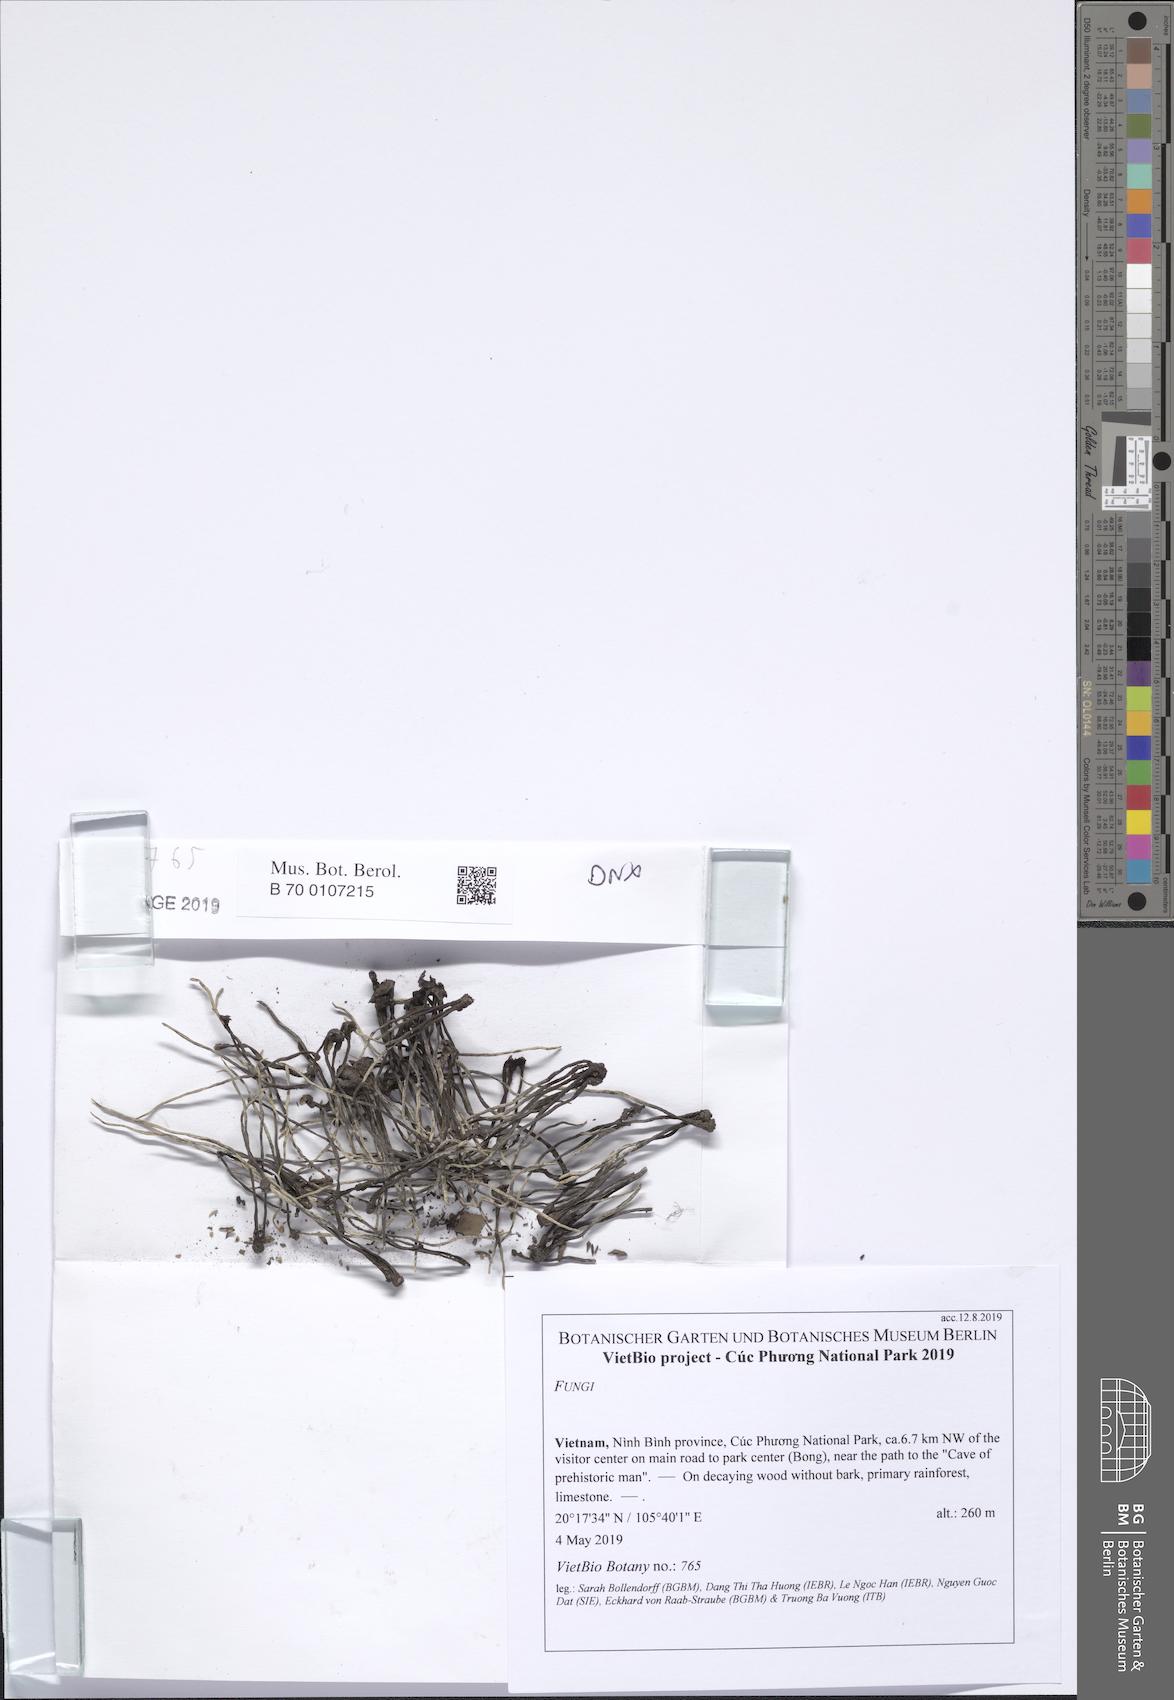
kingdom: Fungi
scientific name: Fungi
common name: Fungi
